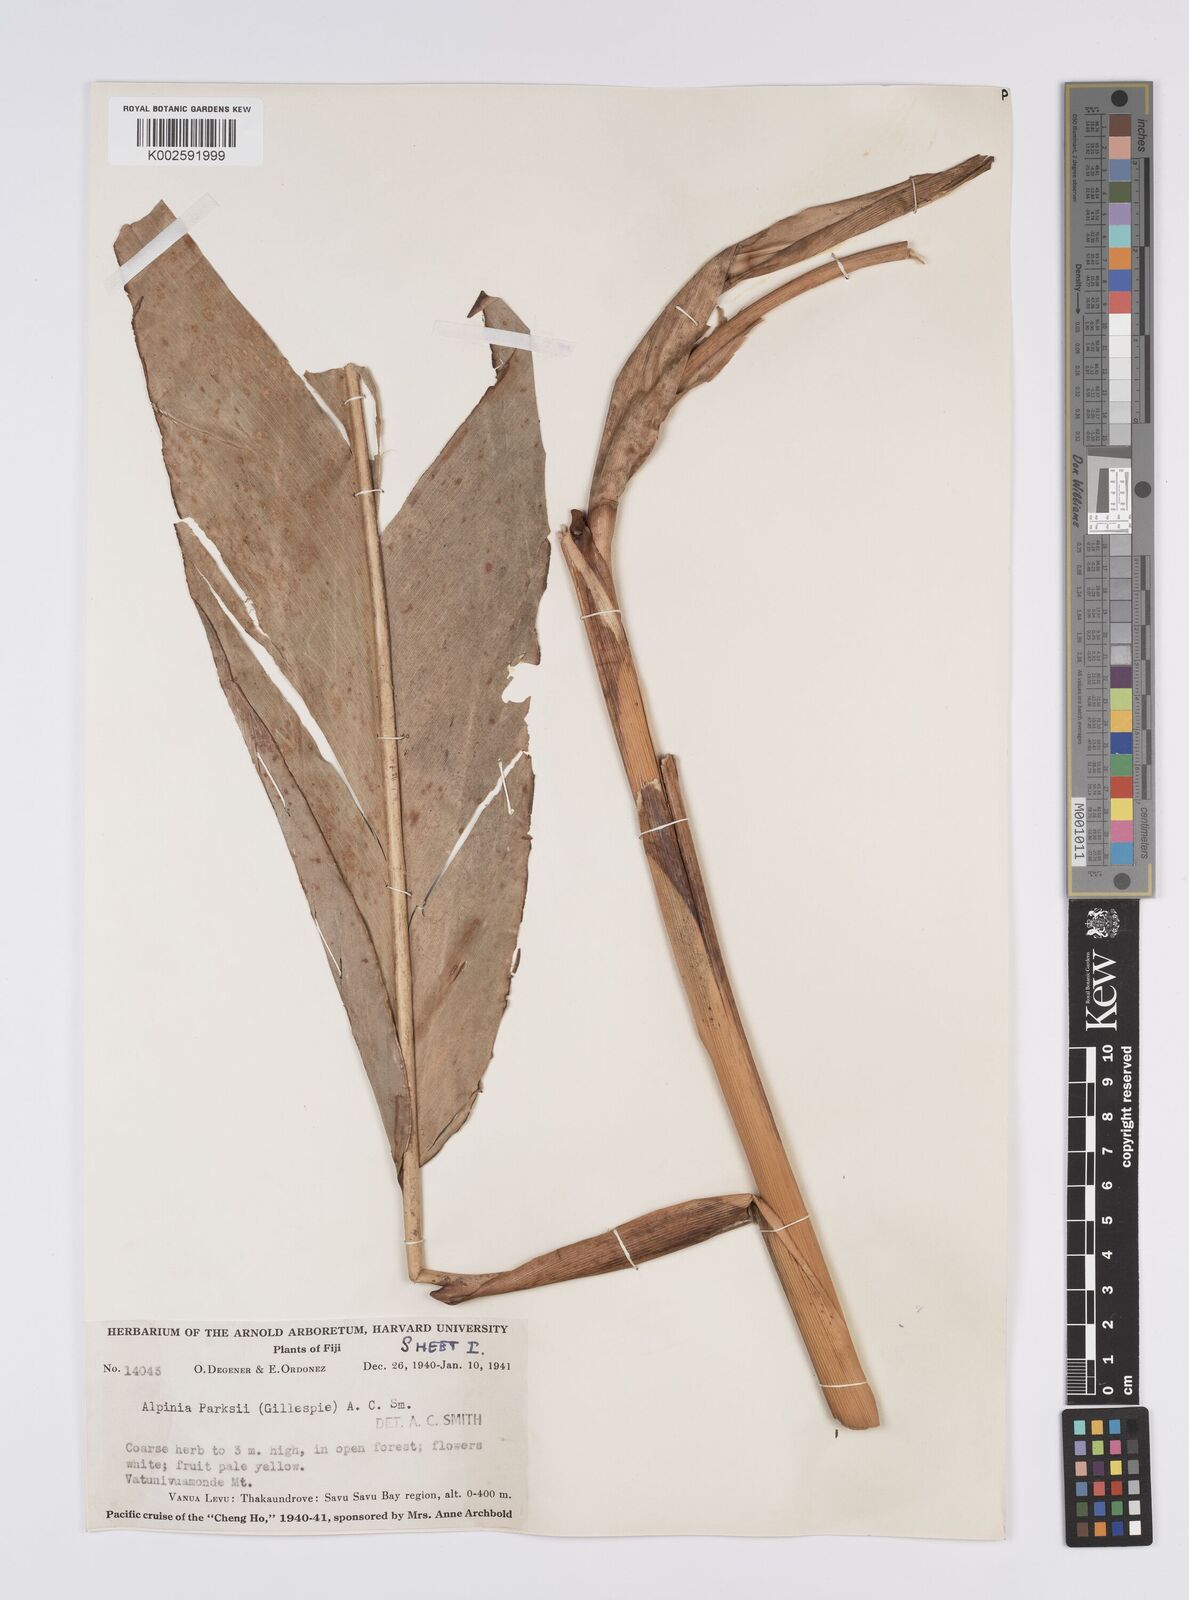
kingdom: Plantae
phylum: Tracheophyta
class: Liliopsida
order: Zingiberales
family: Zingiberaceae
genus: Alpinia
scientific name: Alpinia parksii
